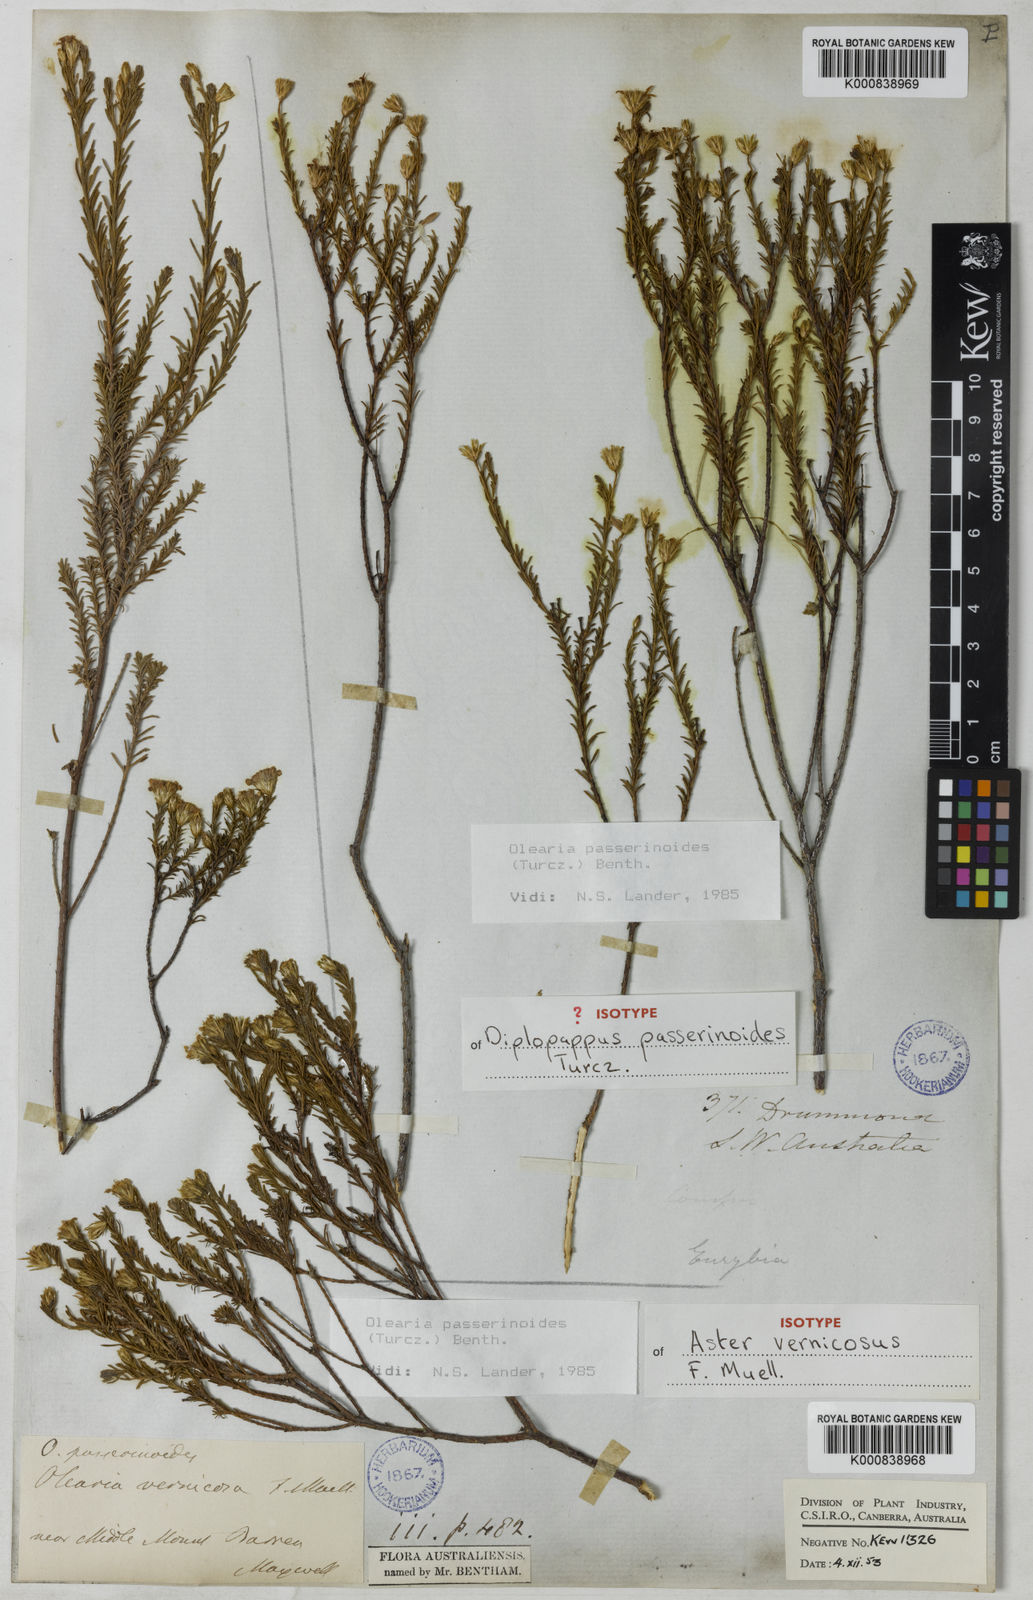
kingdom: Plantae
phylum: Tracheophyta
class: Magnoliopsida
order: Asterales
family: Asteraceae
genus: Olearia
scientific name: Olearia passerinoides
